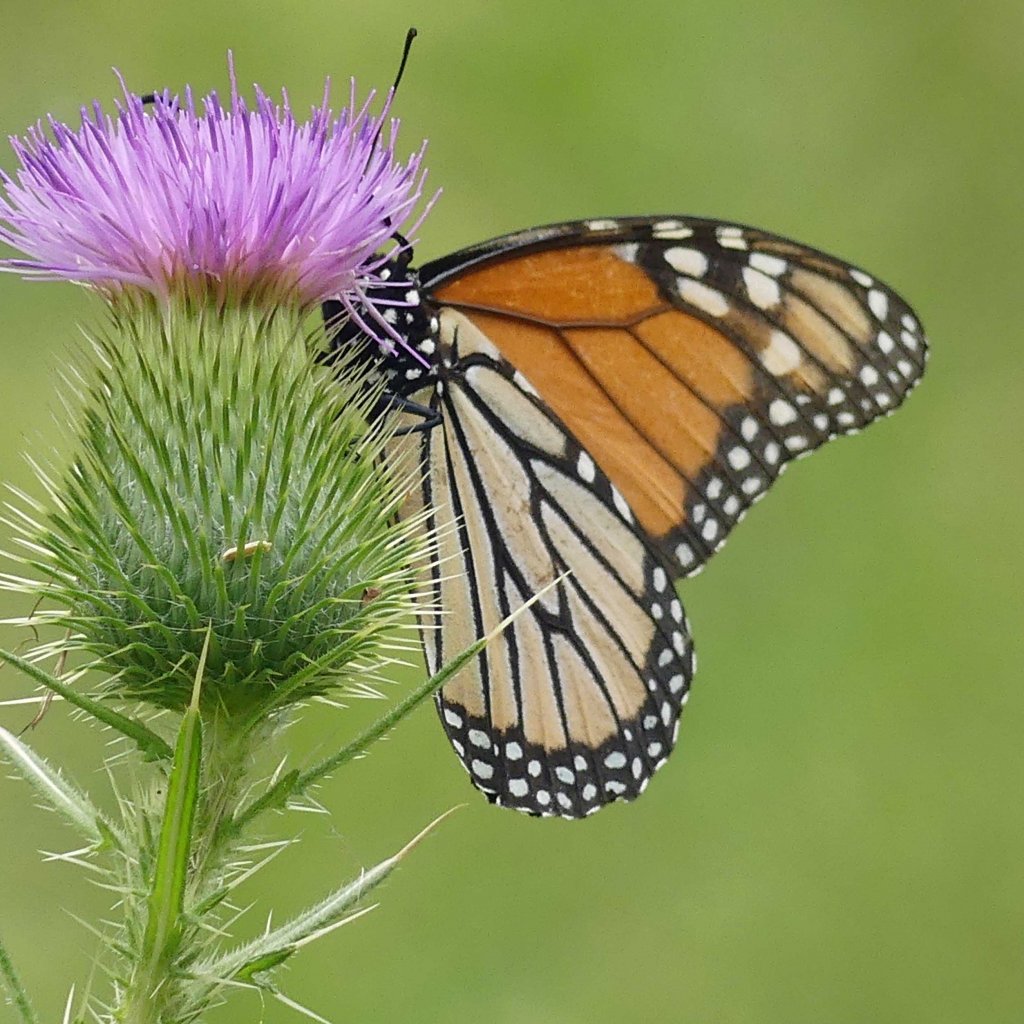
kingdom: Animalia
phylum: Arthropoda
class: Insecta
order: Lepidoptera
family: Nymphalidae
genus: Danaus
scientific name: Danaus plexippus
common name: Monarch
